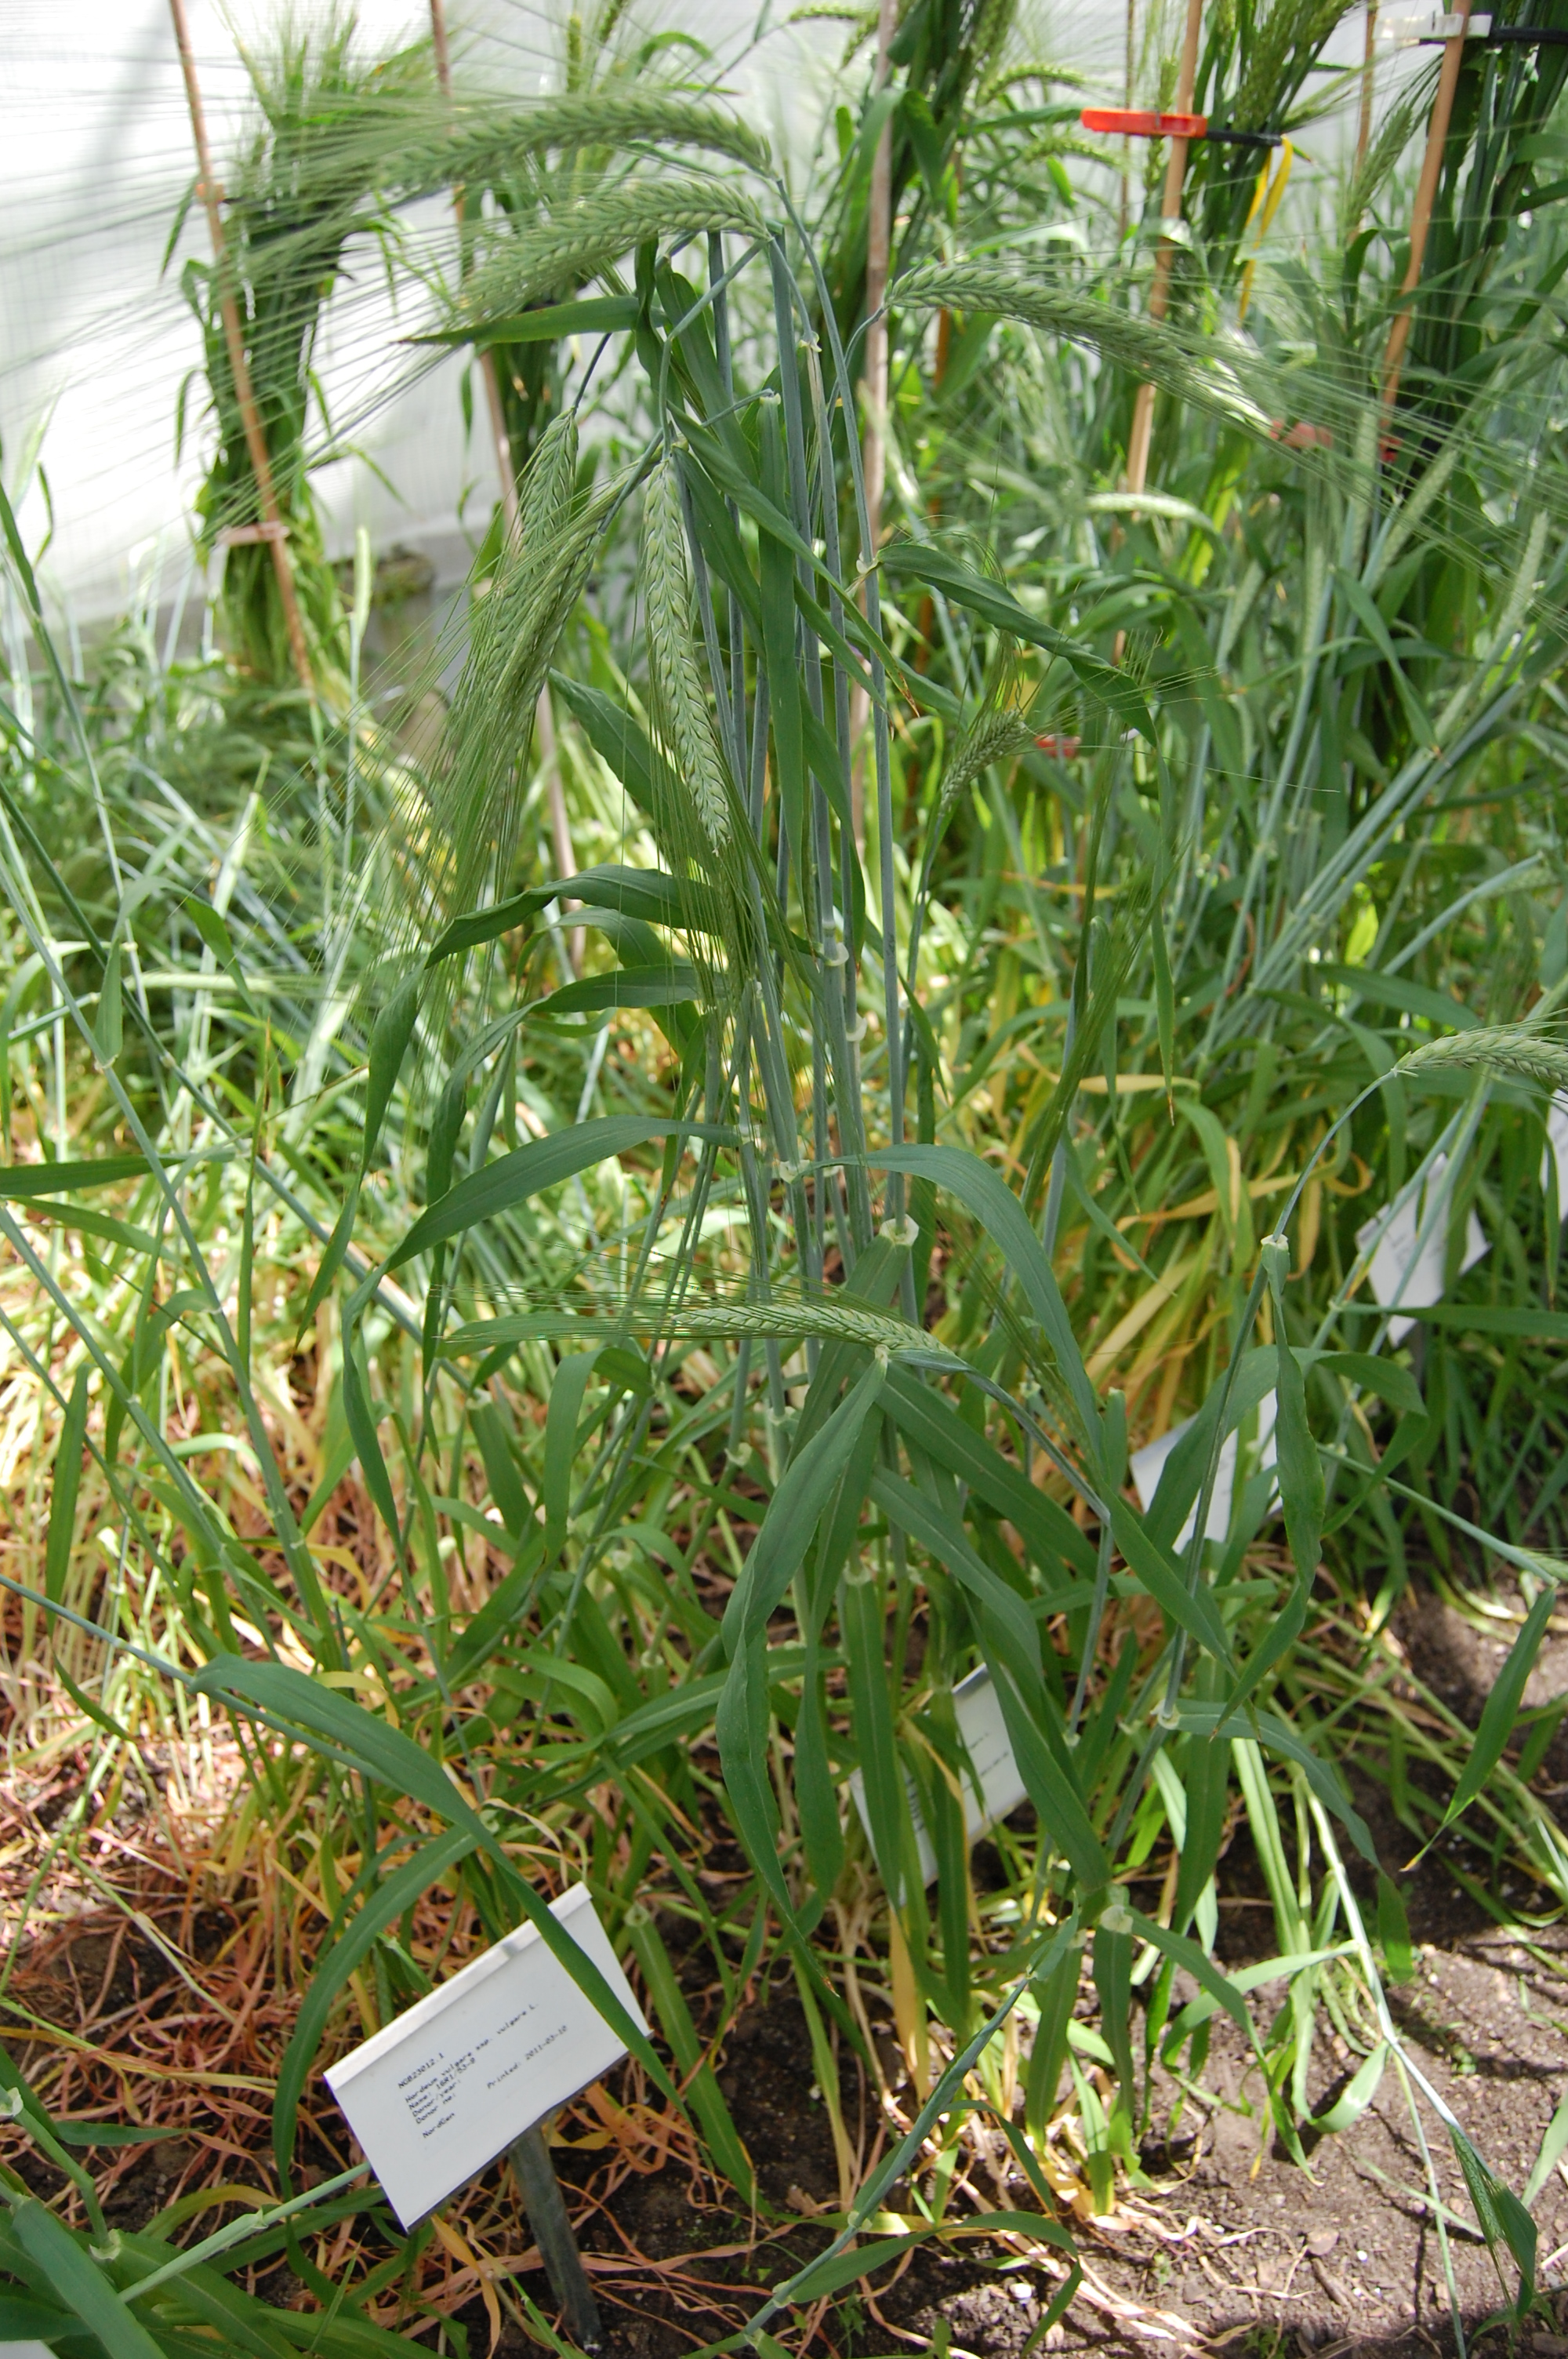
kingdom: Plantae
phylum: Tracheophyta
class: Liliopsida
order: Poales
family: Poaceae
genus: Hordeum
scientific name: Hordeum vulgare
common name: Common barley
